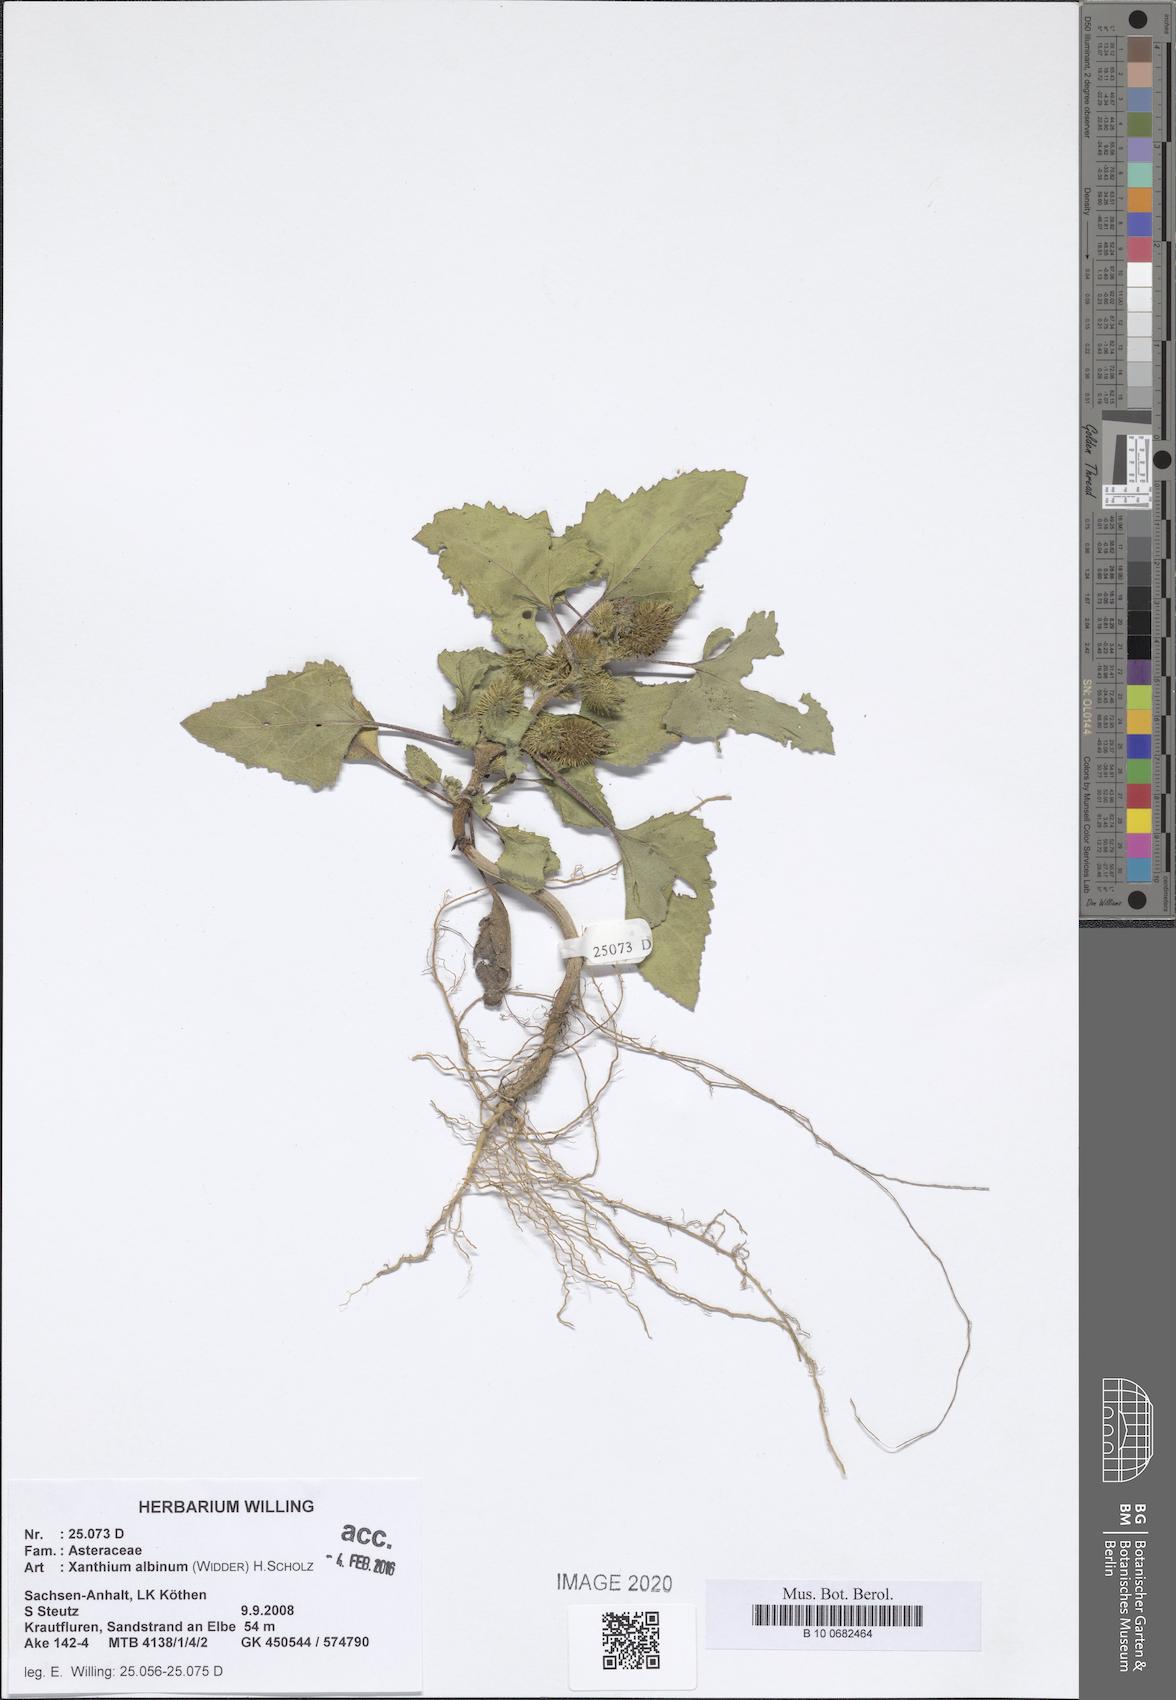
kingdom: Plantae
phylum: Tracheophyta
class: Magnoliopsida
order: Asterales
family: Asteraceae
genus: Xanthium
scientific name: Xanthium orientale
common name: Californian burr
